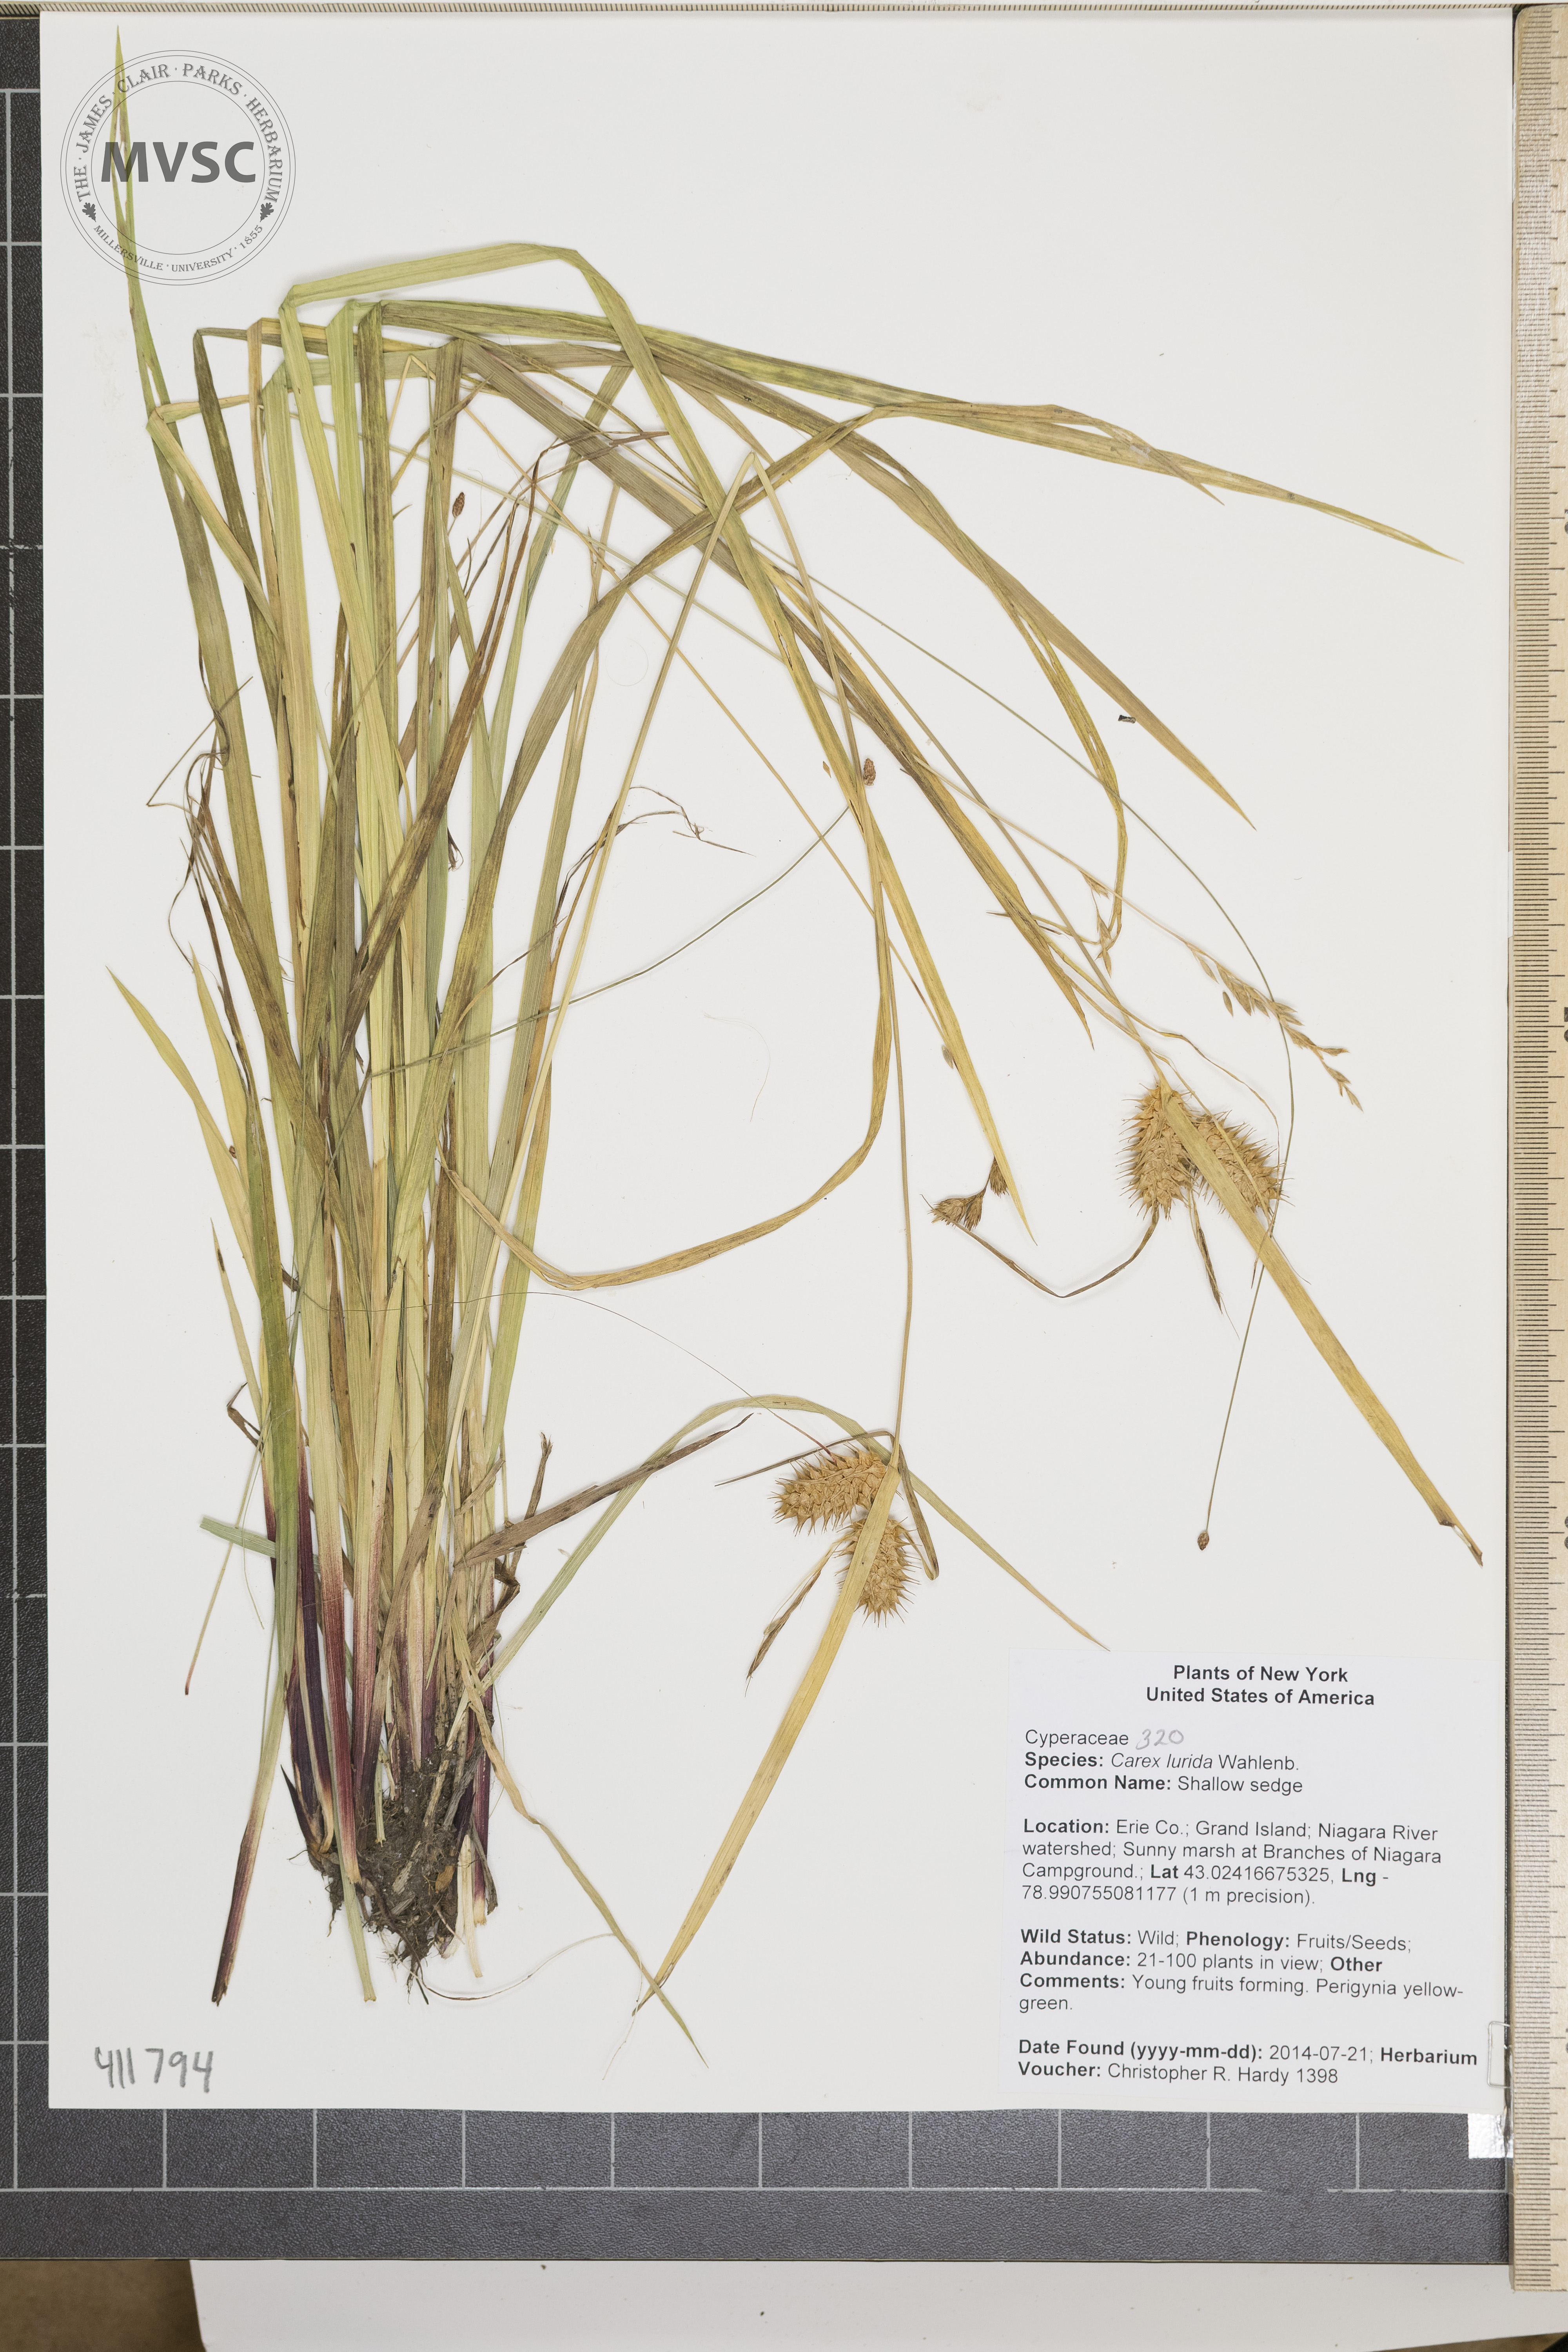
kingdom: Plantae
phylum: Tracheophyta
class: Liliopsida
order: Poales
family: Cyperaceae
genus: Carex
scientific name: Carex lurida
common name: Shallow sedge
